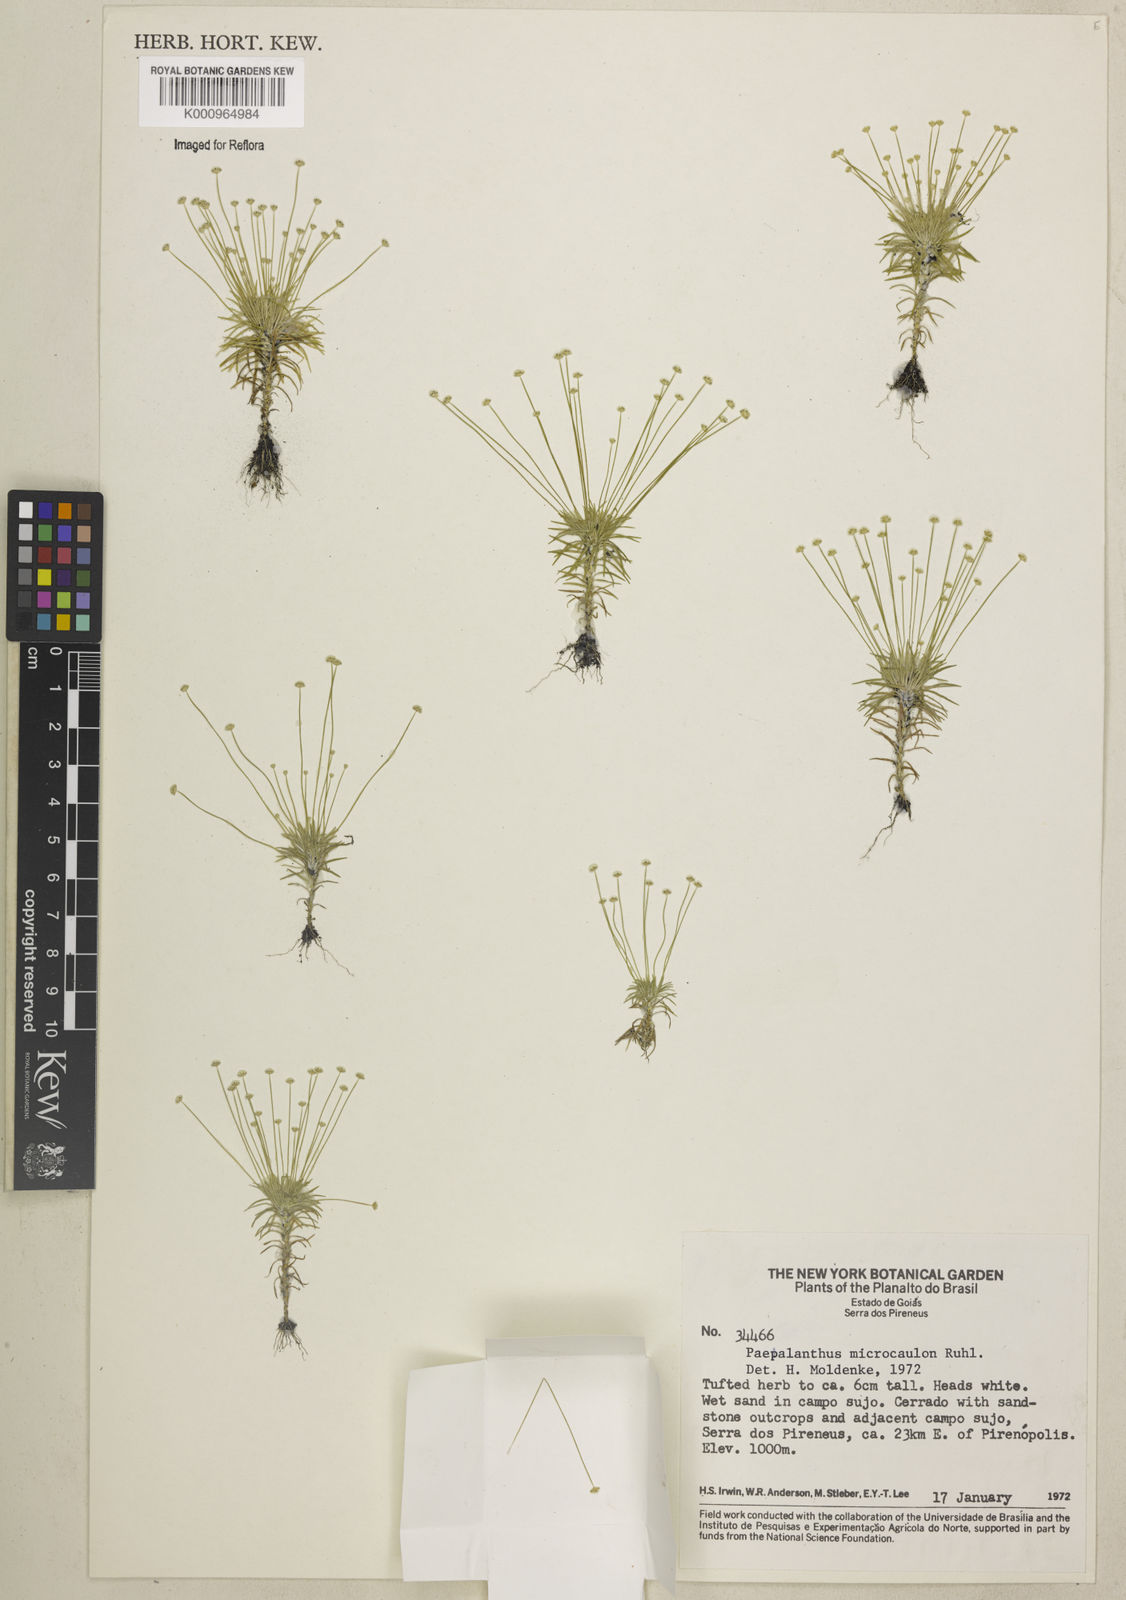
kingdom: Plantae
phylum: Tracheophyta
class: Liliopsida
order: Poales
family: Eriocaulaceae
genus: Paepalanthus
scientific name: Paepalanthus microcaulon
